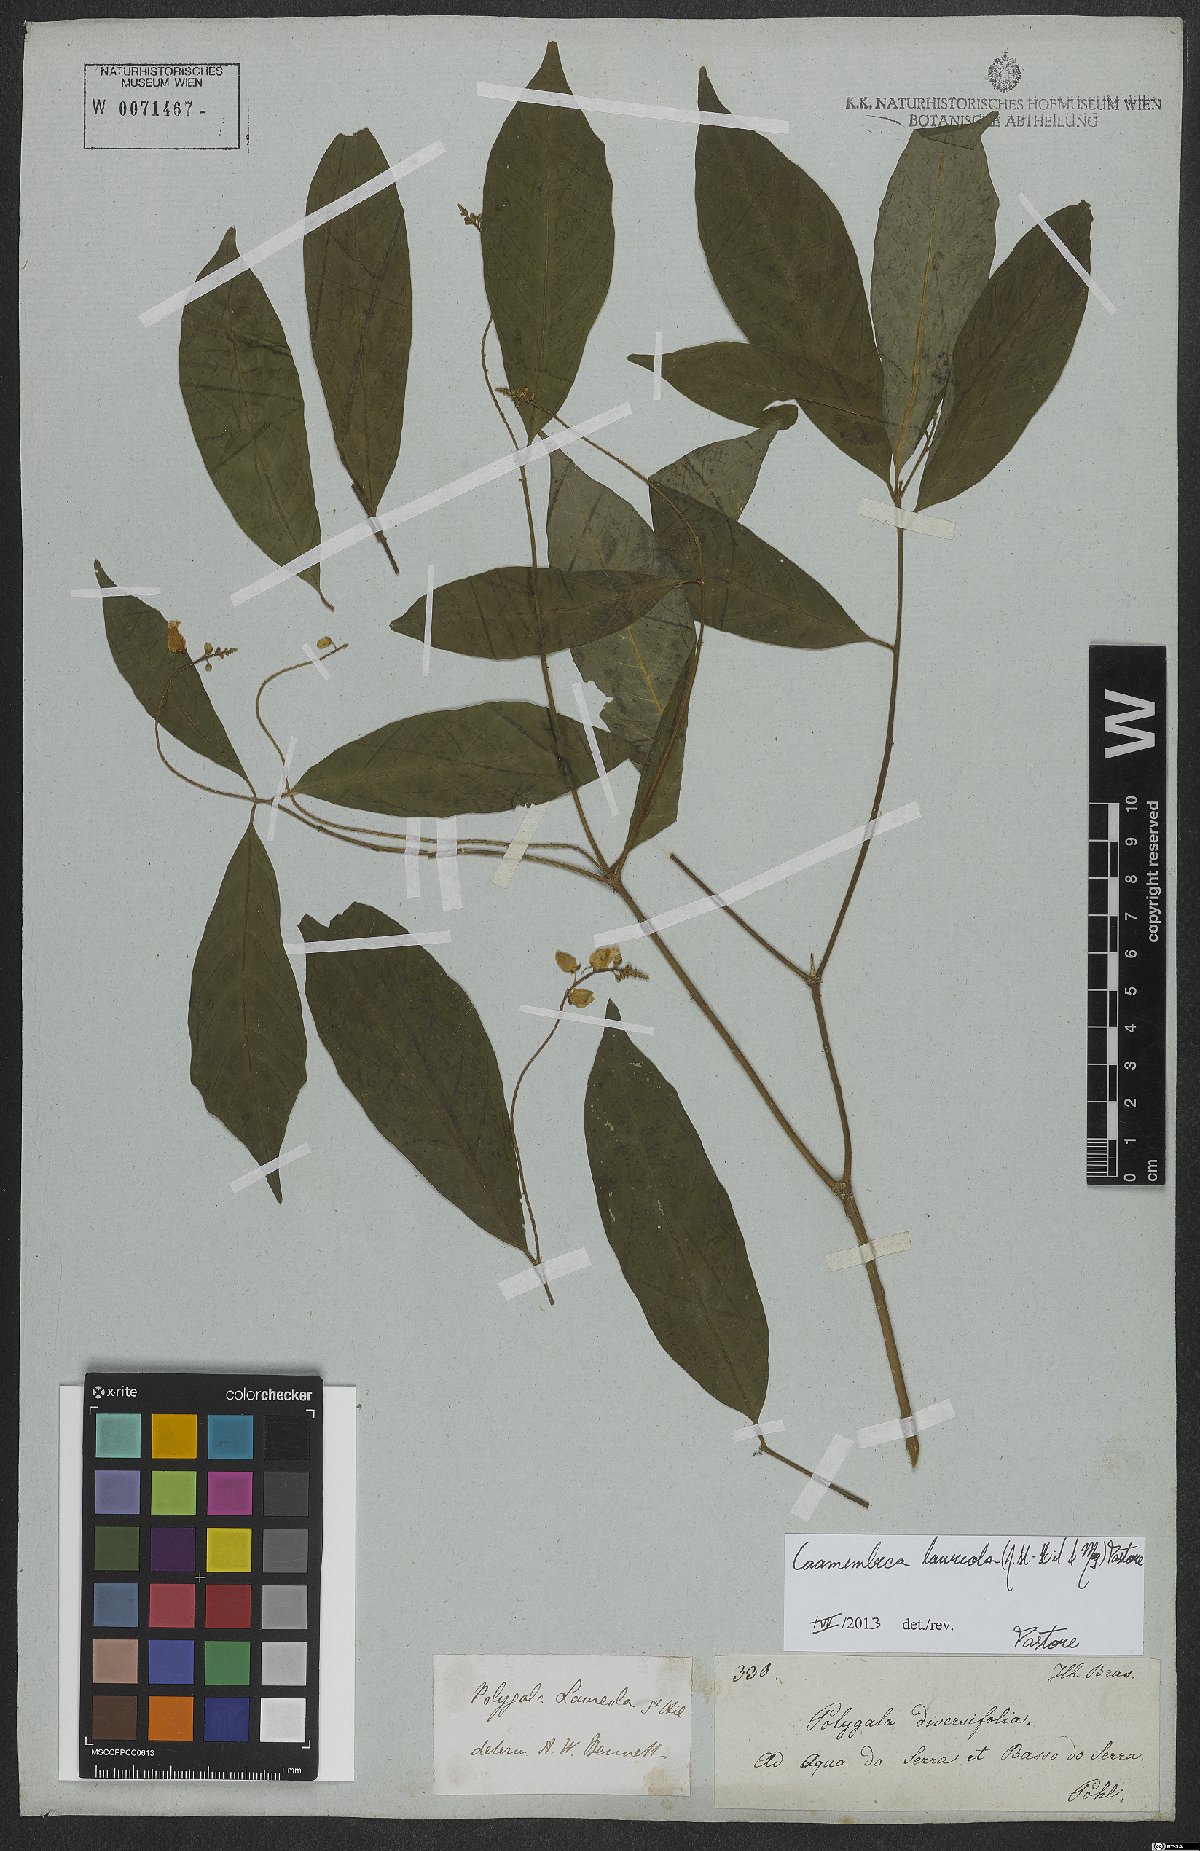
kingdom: Plantae
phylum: Tracheophyta
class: Magnoliopsida
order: Fabales
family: Polygalaceae
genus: Caamembeca
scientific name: Caamembeca salicifolia
